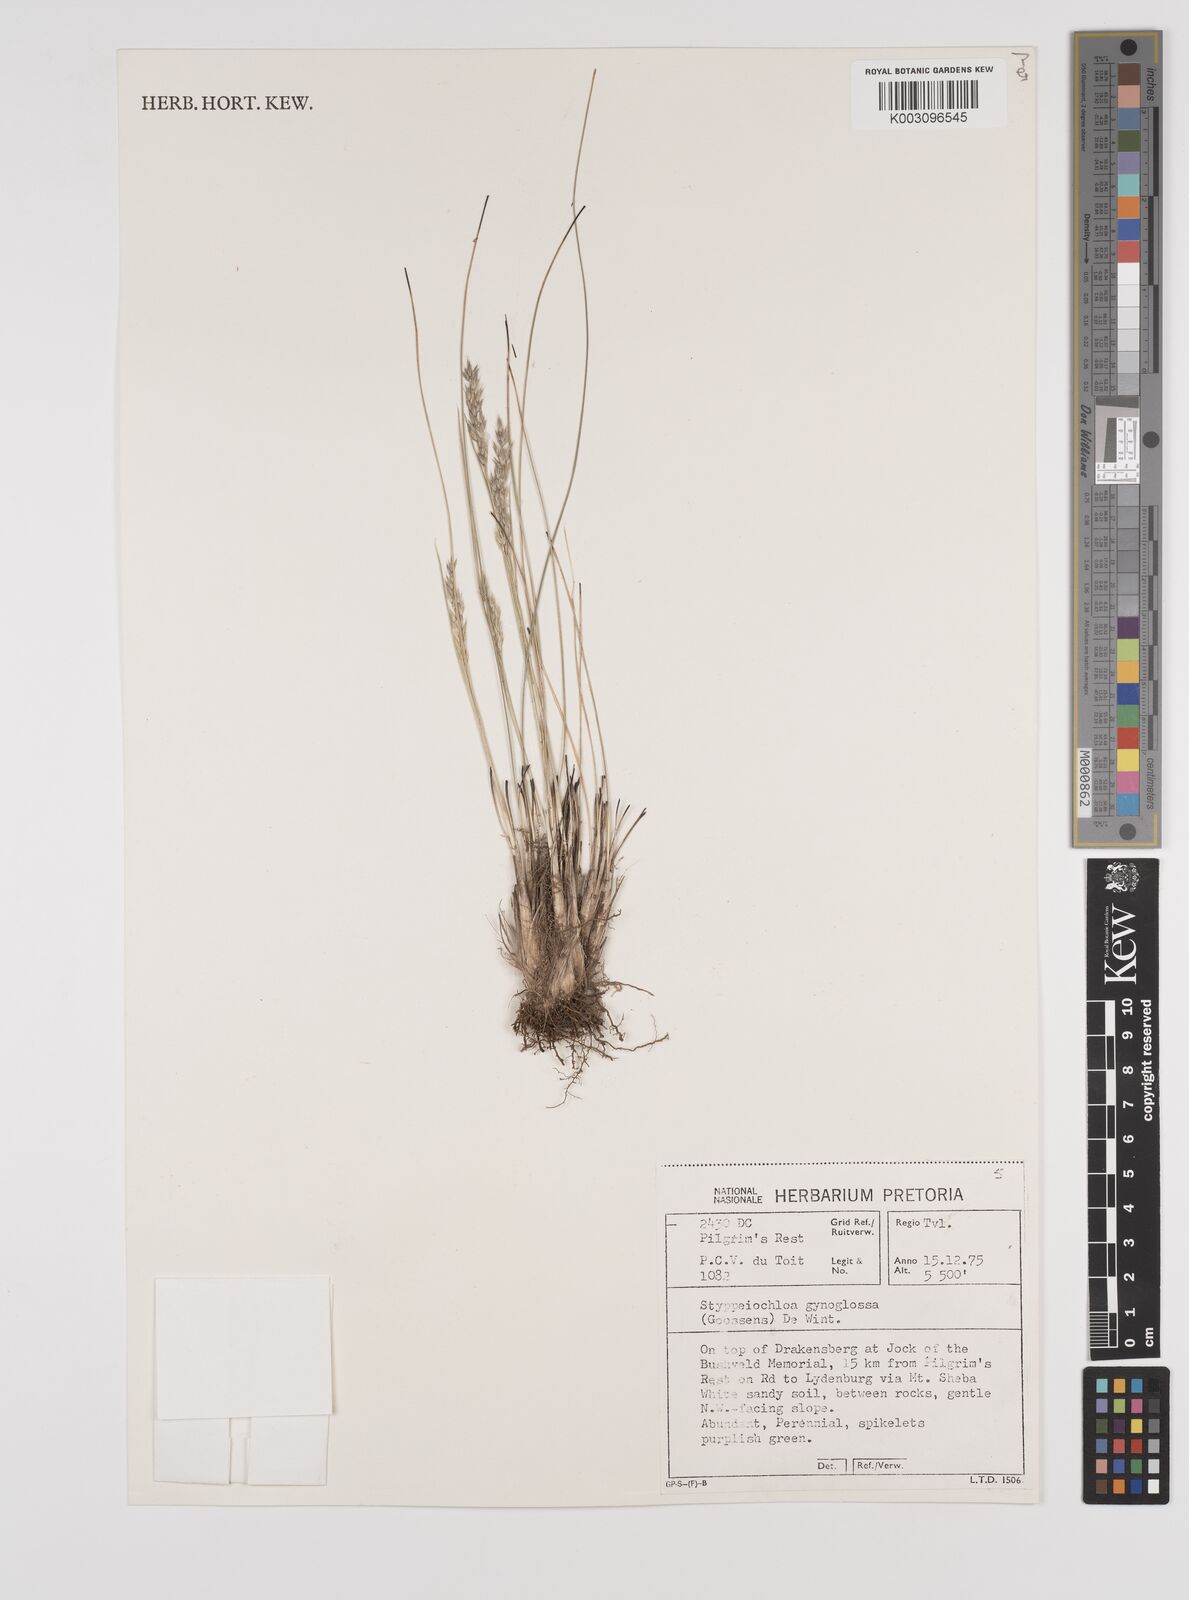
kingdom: Plantae
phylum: Tracheophyta
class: Liliopsida
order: Poales
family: Poaceae
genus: Styppeiochloa
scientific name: Styppeiochloa gynoglossa
